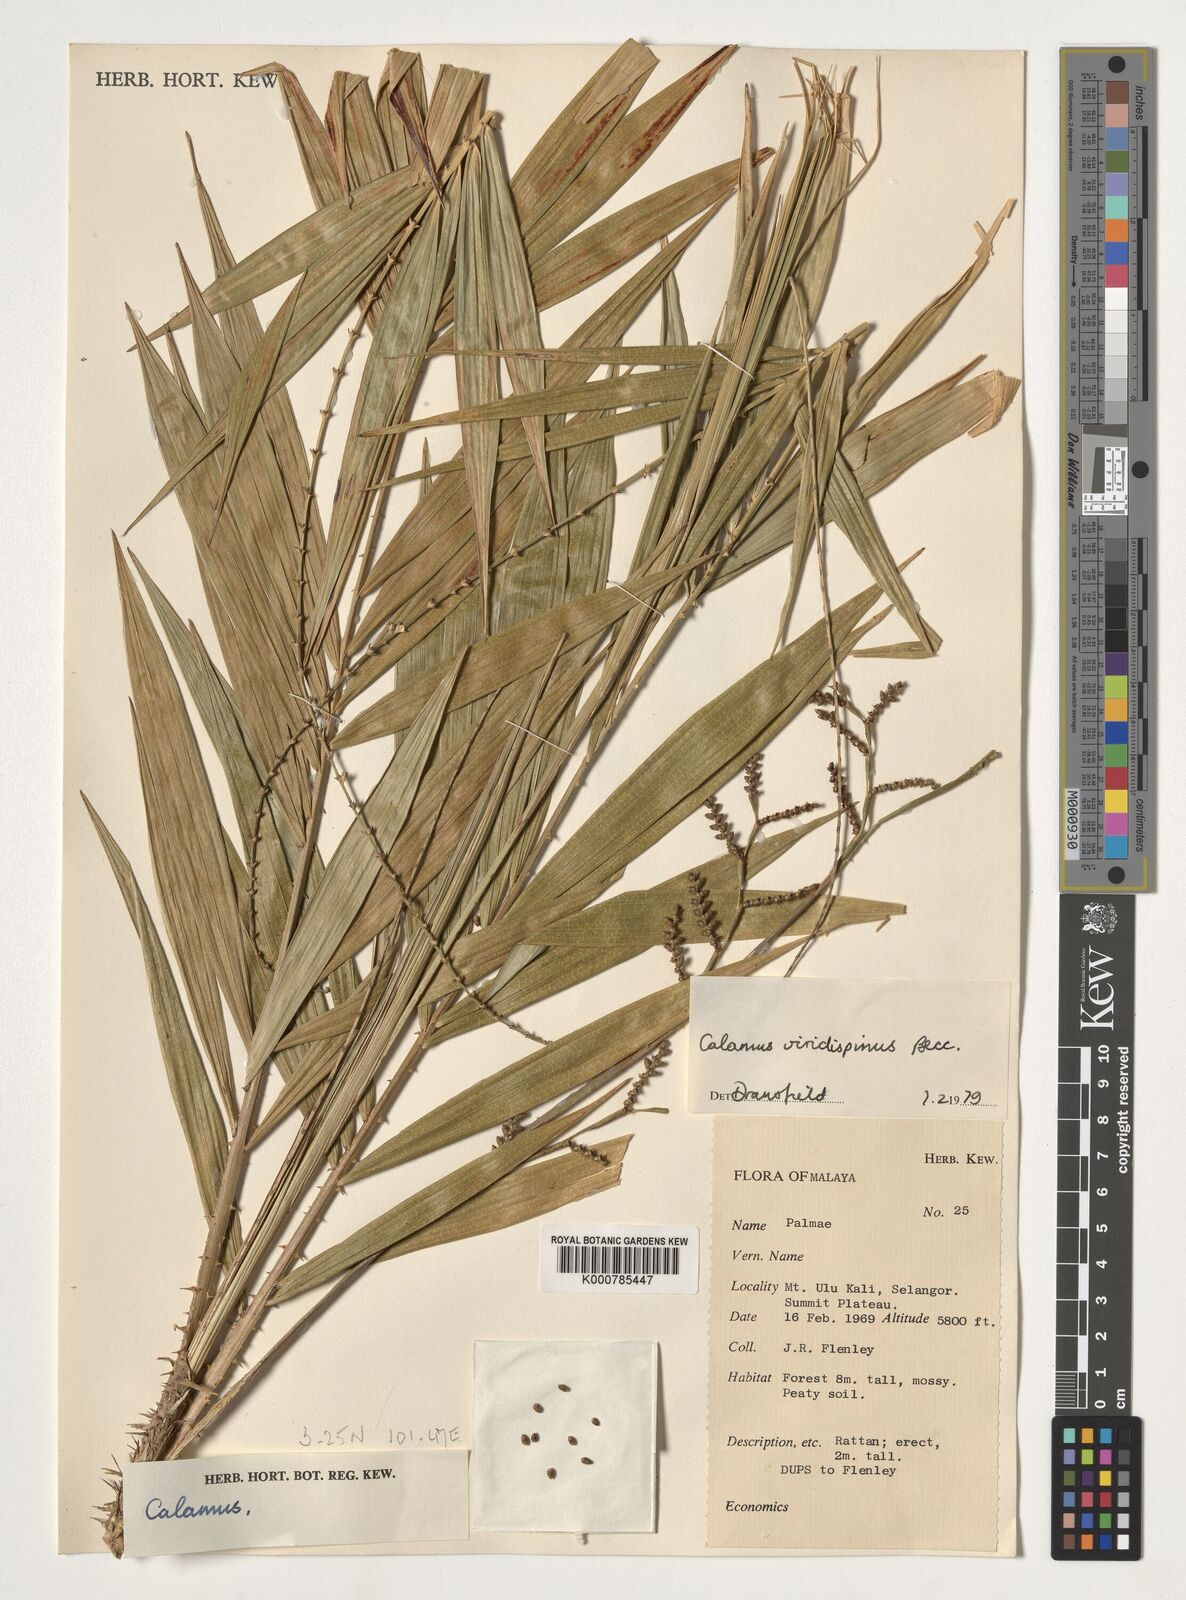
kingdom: Plantae
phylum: Tracheophyta
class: Liliopsida
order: Arecales
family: Arecaceae
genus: Calamus
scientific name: Calamus helferianus
